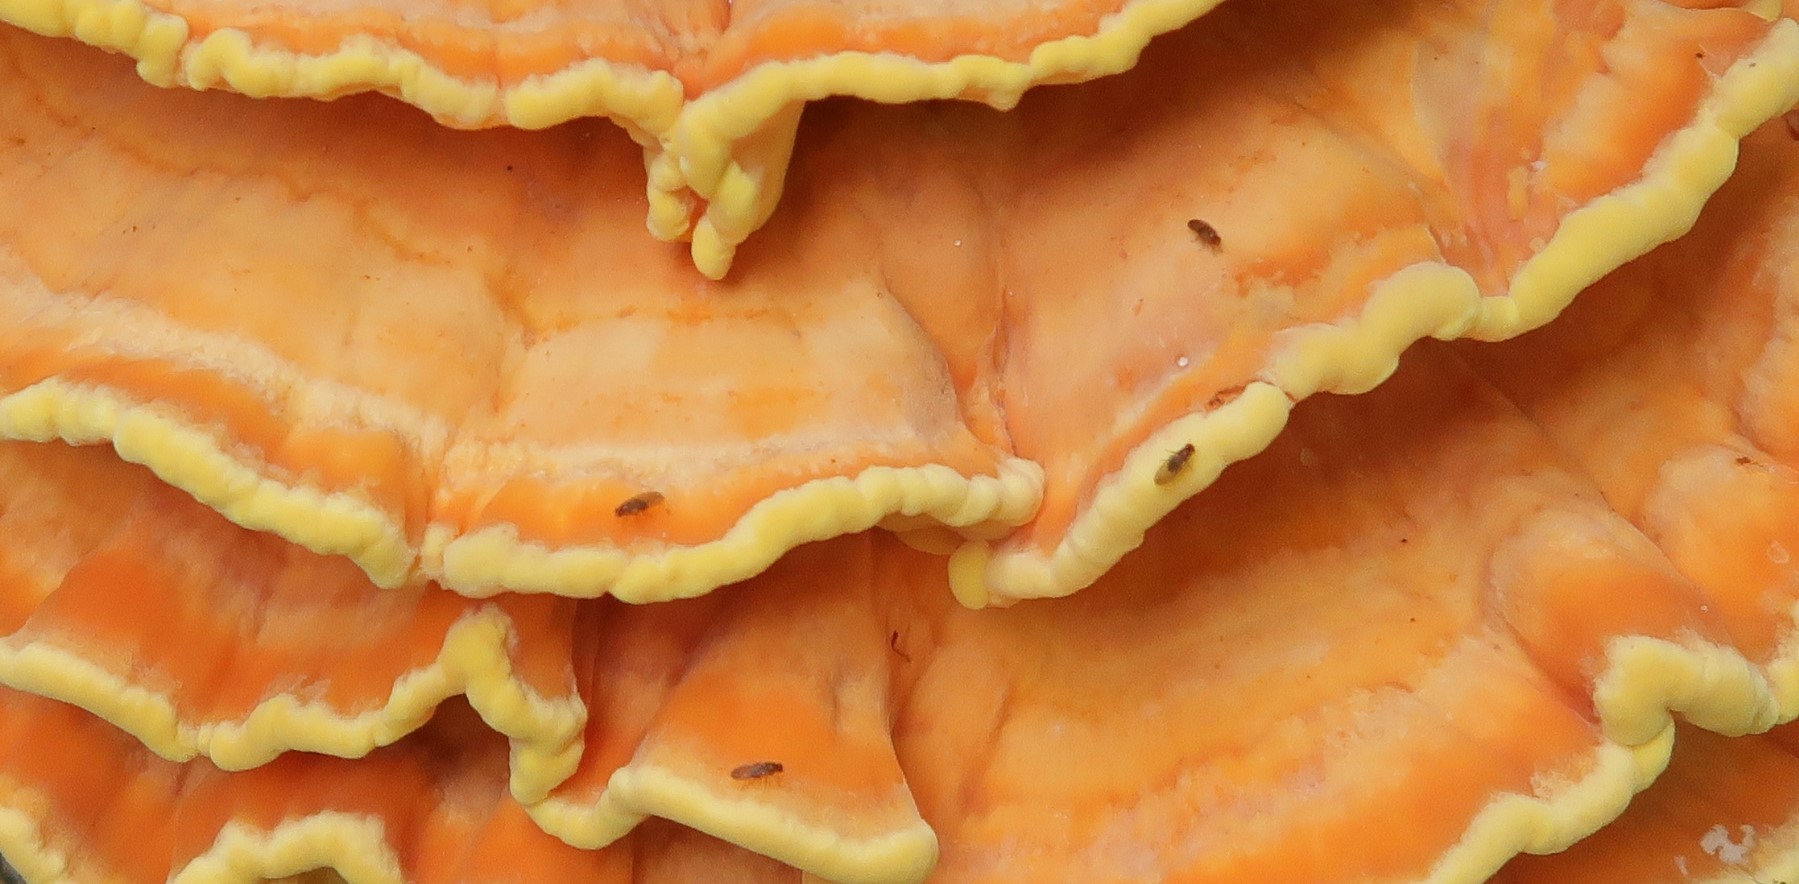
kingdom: Fungi
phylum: Basidiomycota
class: Agaricomycetes
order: Polyporales
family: Laetiporaceae
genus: Laetiporus
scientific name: Laetiporus sulphureus
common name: svovlporesvamp
